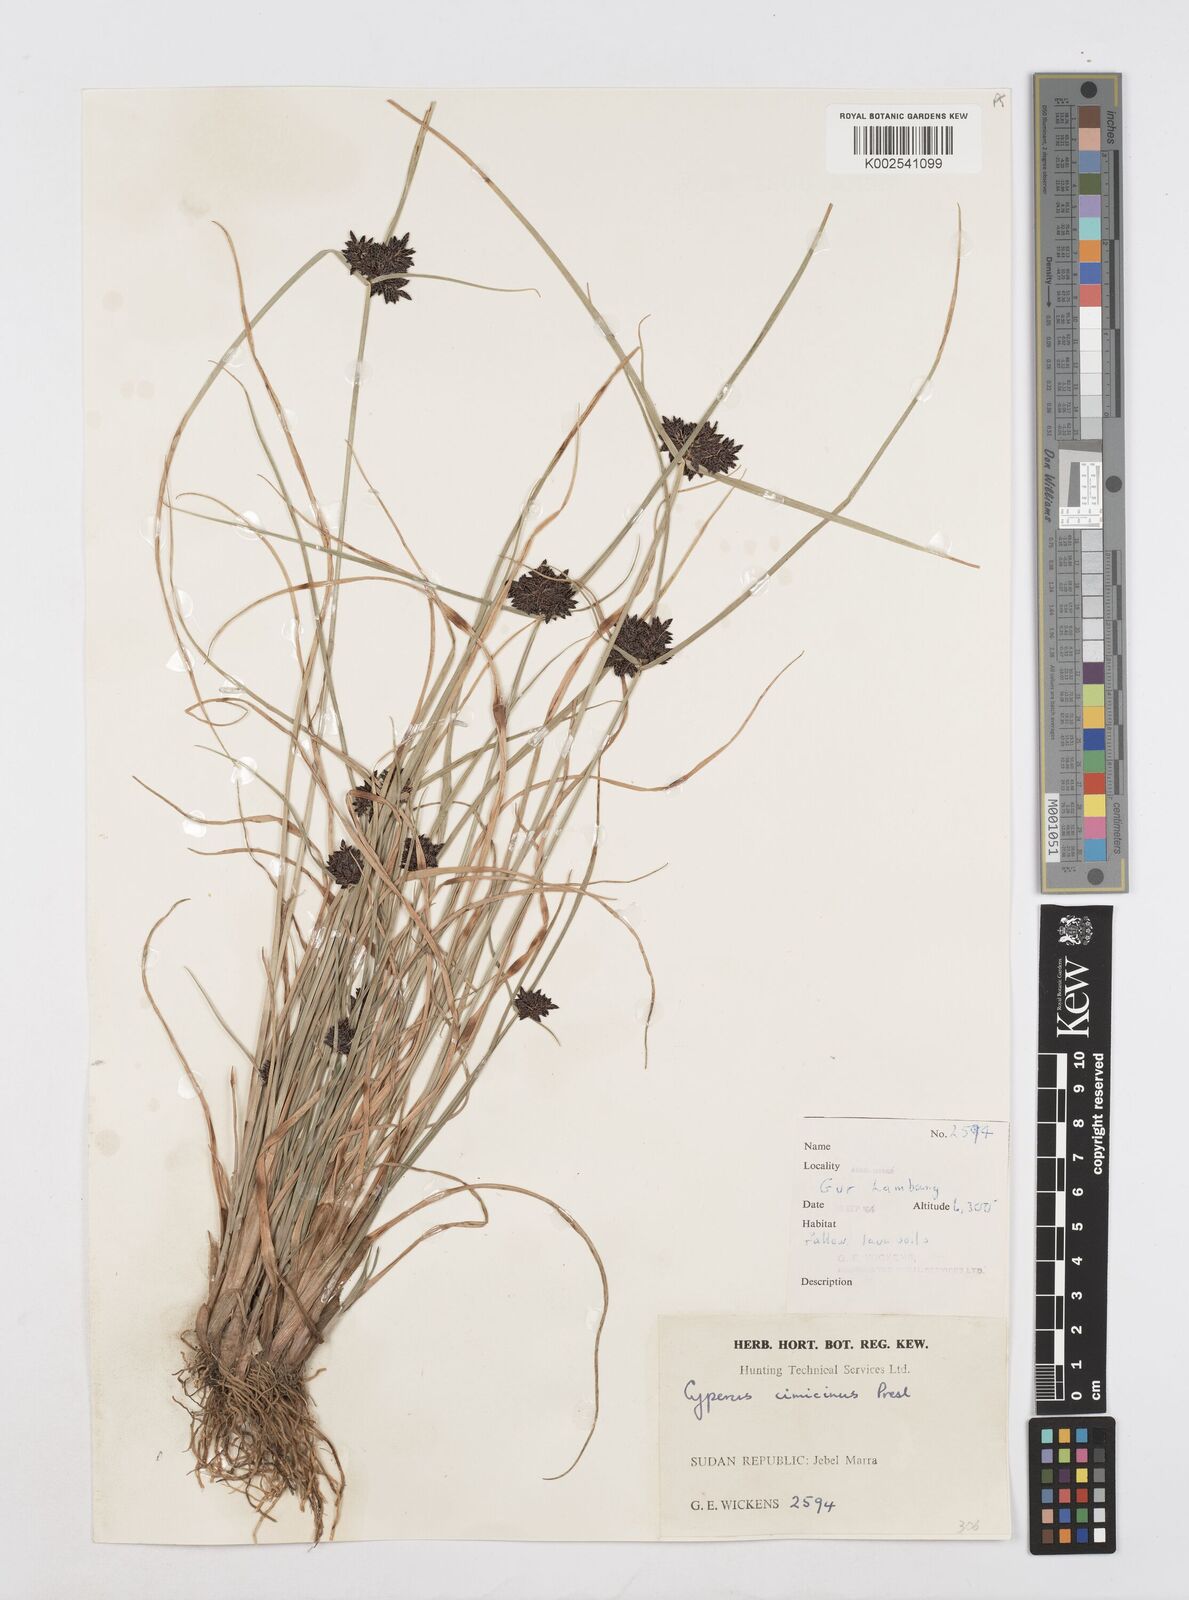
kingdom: Plantae
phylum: Tracheophyta
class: Liliopsida
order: Poales
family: Cyperaceae
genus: Cyperus
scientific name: Cyperus elegantulus
